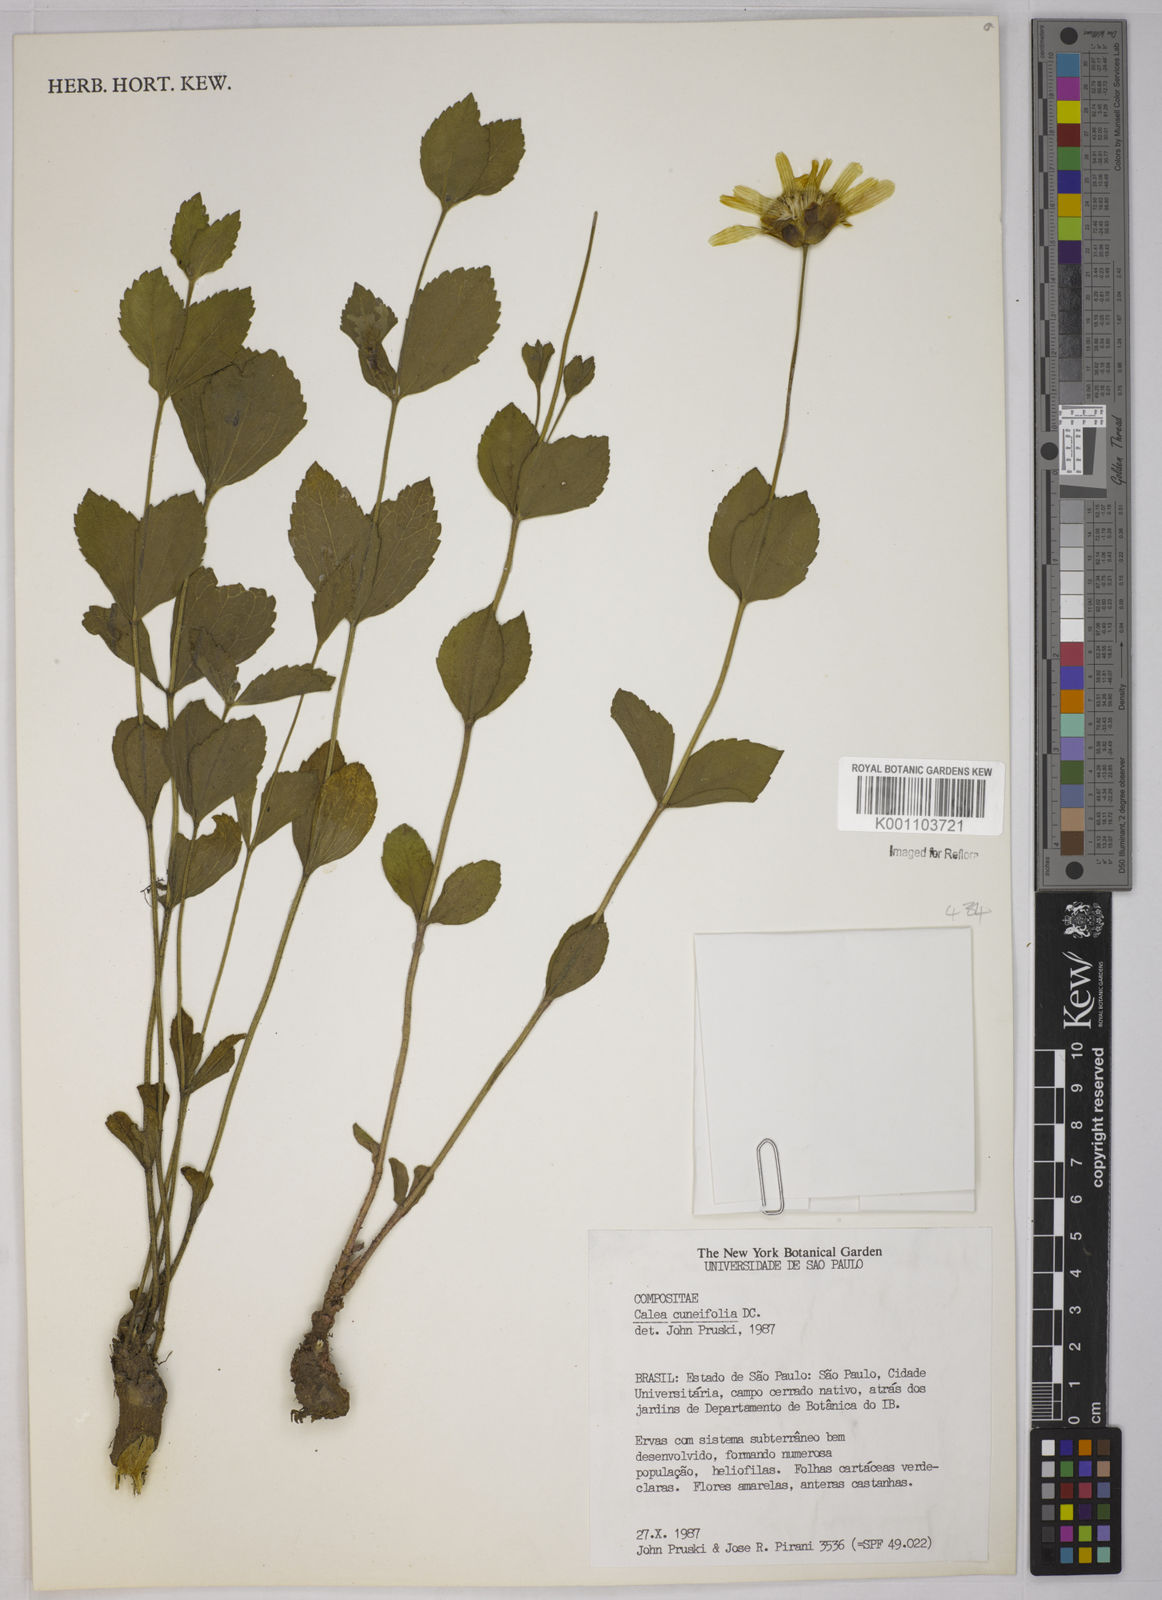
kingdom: Plantae
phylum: Tracheophyta
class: Magnoliopsida
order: Asterales
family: Asteraceae
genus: Calea
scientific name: Calea cuneifolia
